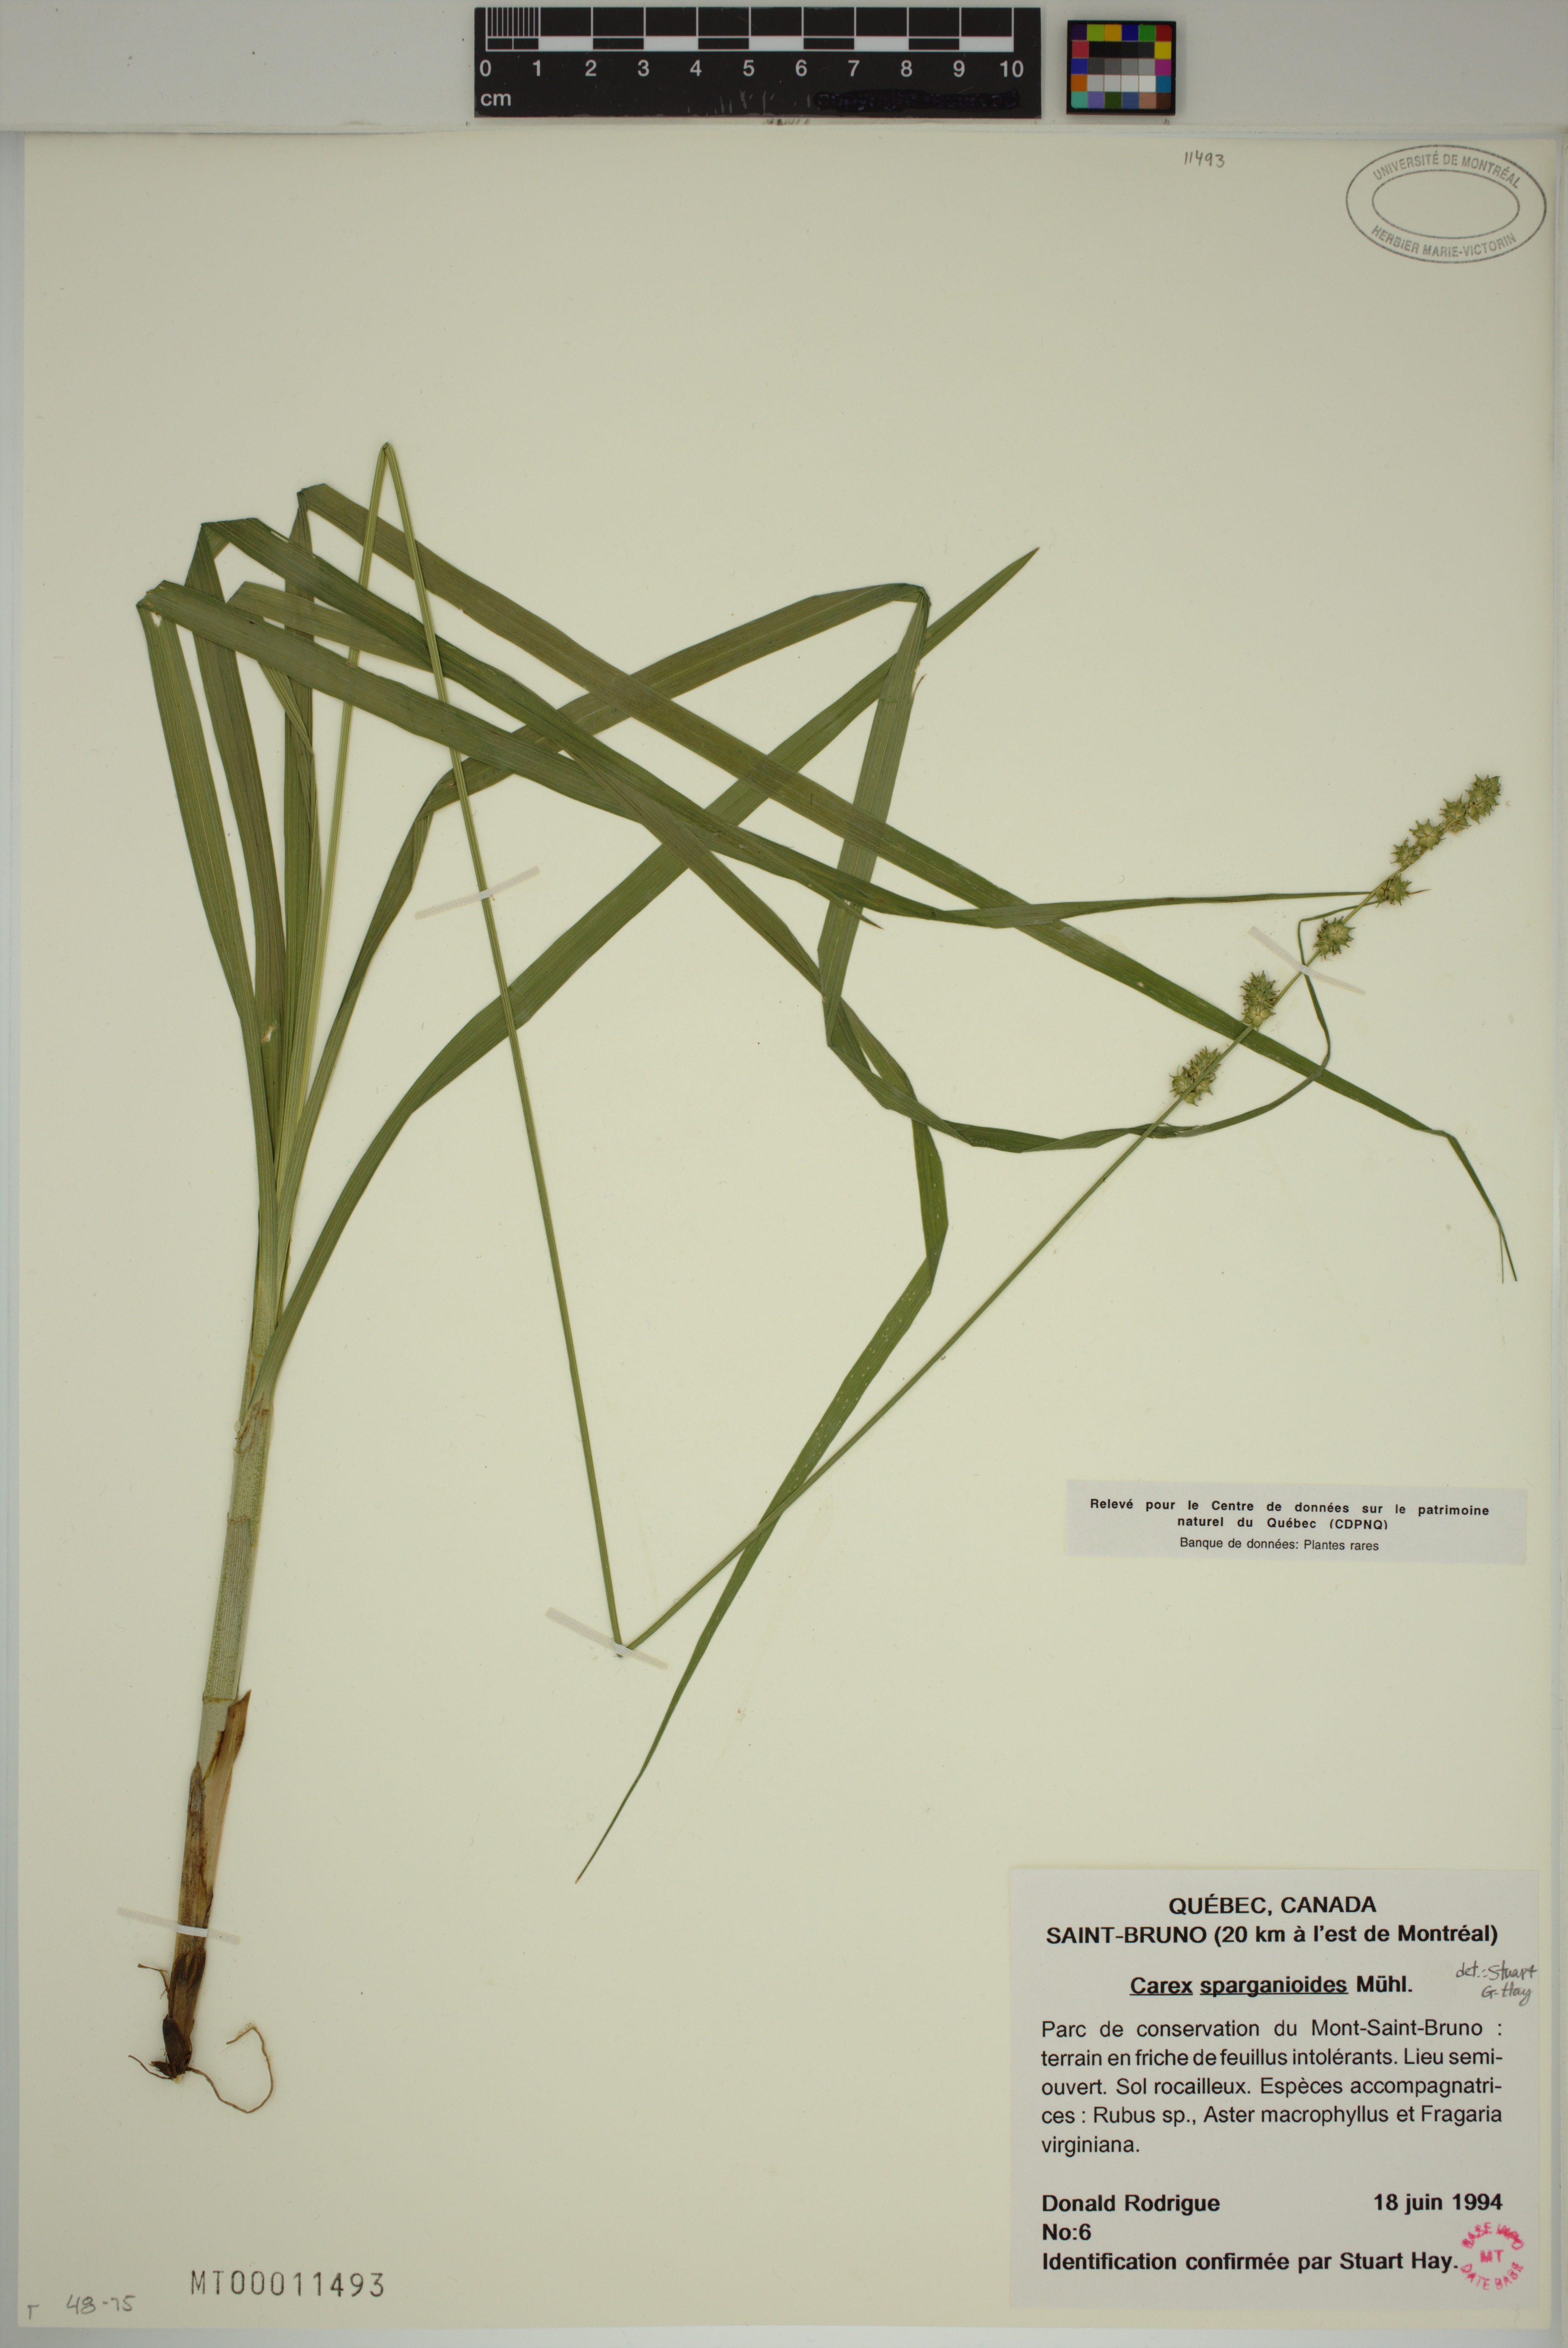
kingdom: Plantae
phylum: Tracheophyta
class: Liliopsida
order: Poales
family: Cyperaceae
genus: Carex
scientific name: Carex sparganioides
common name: Burreed sedge
